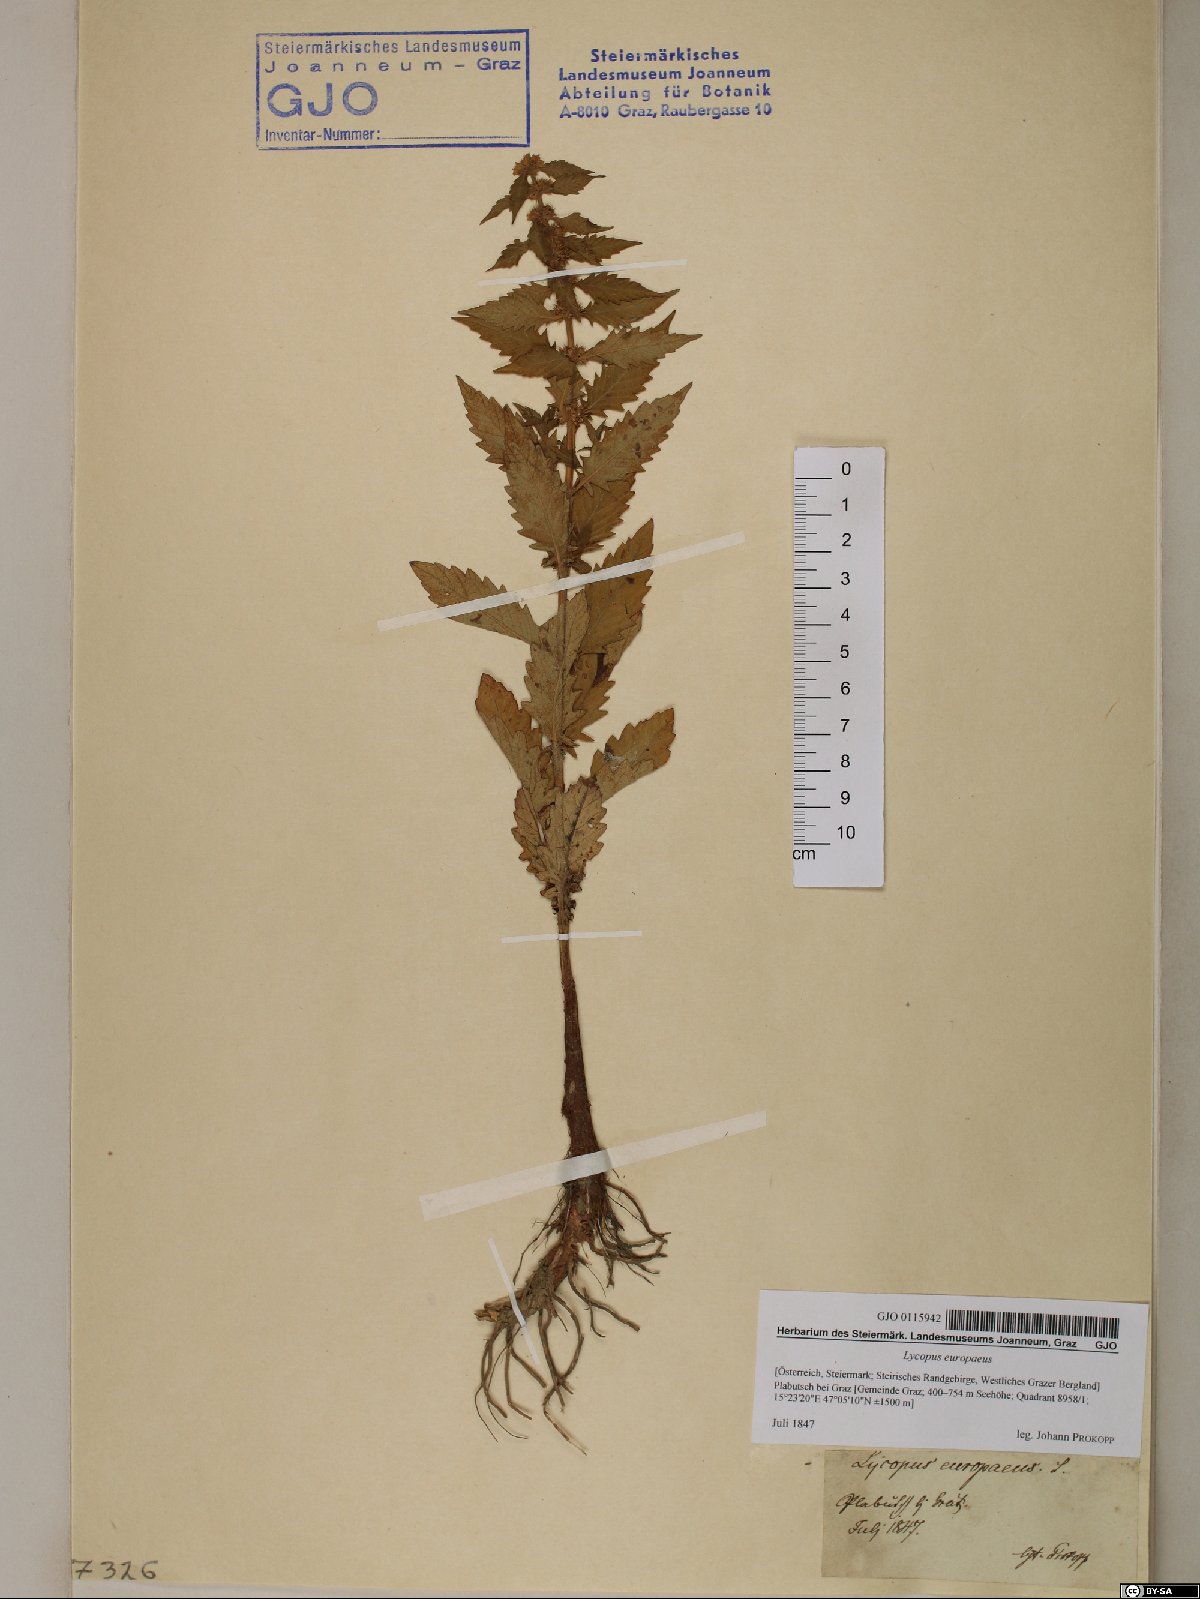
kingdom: Plantae
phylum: Tracheophyta
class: Magnoliopsida
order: Lamiales
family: Lamiaceae
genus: Lycopus
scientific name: Lycopus europaeus
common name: European bugleweed
